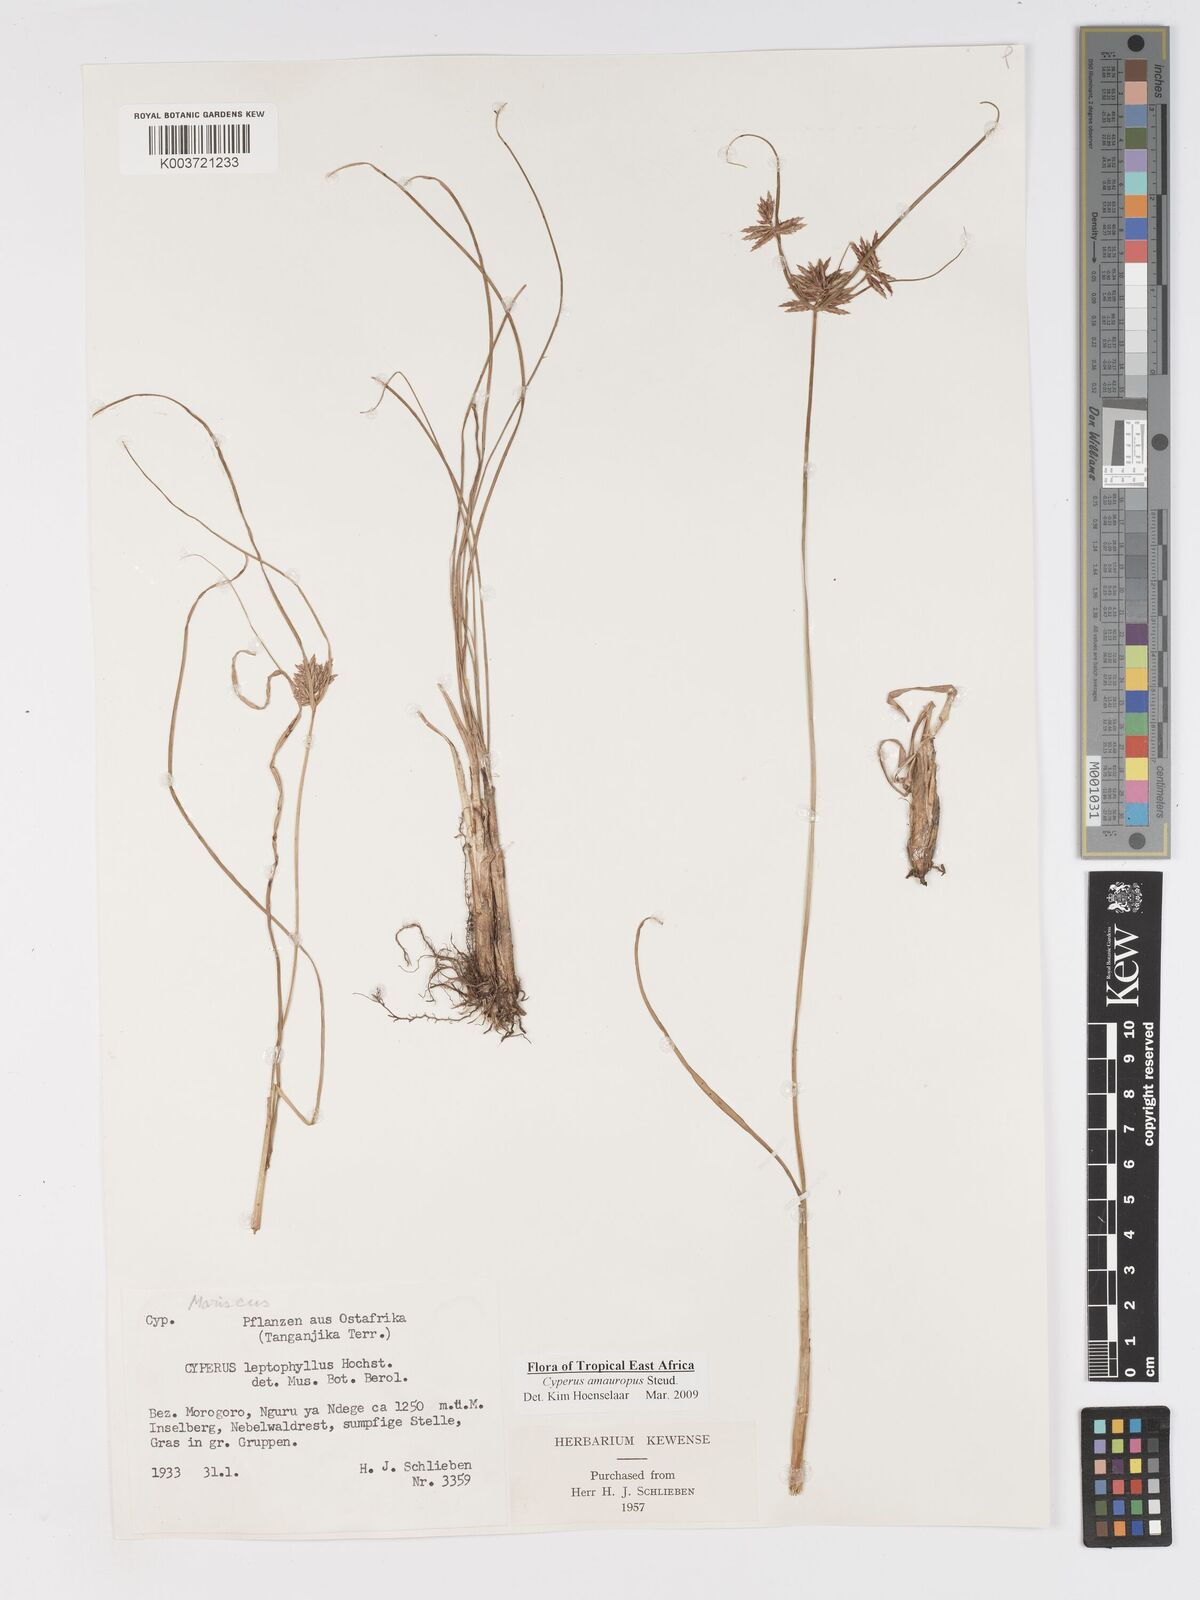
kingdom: Plantae
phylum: Tracheophyta
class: Liliopsida
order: Poales
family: Cyperaceae
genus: Cyperus
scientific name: Cyperus amauropus
